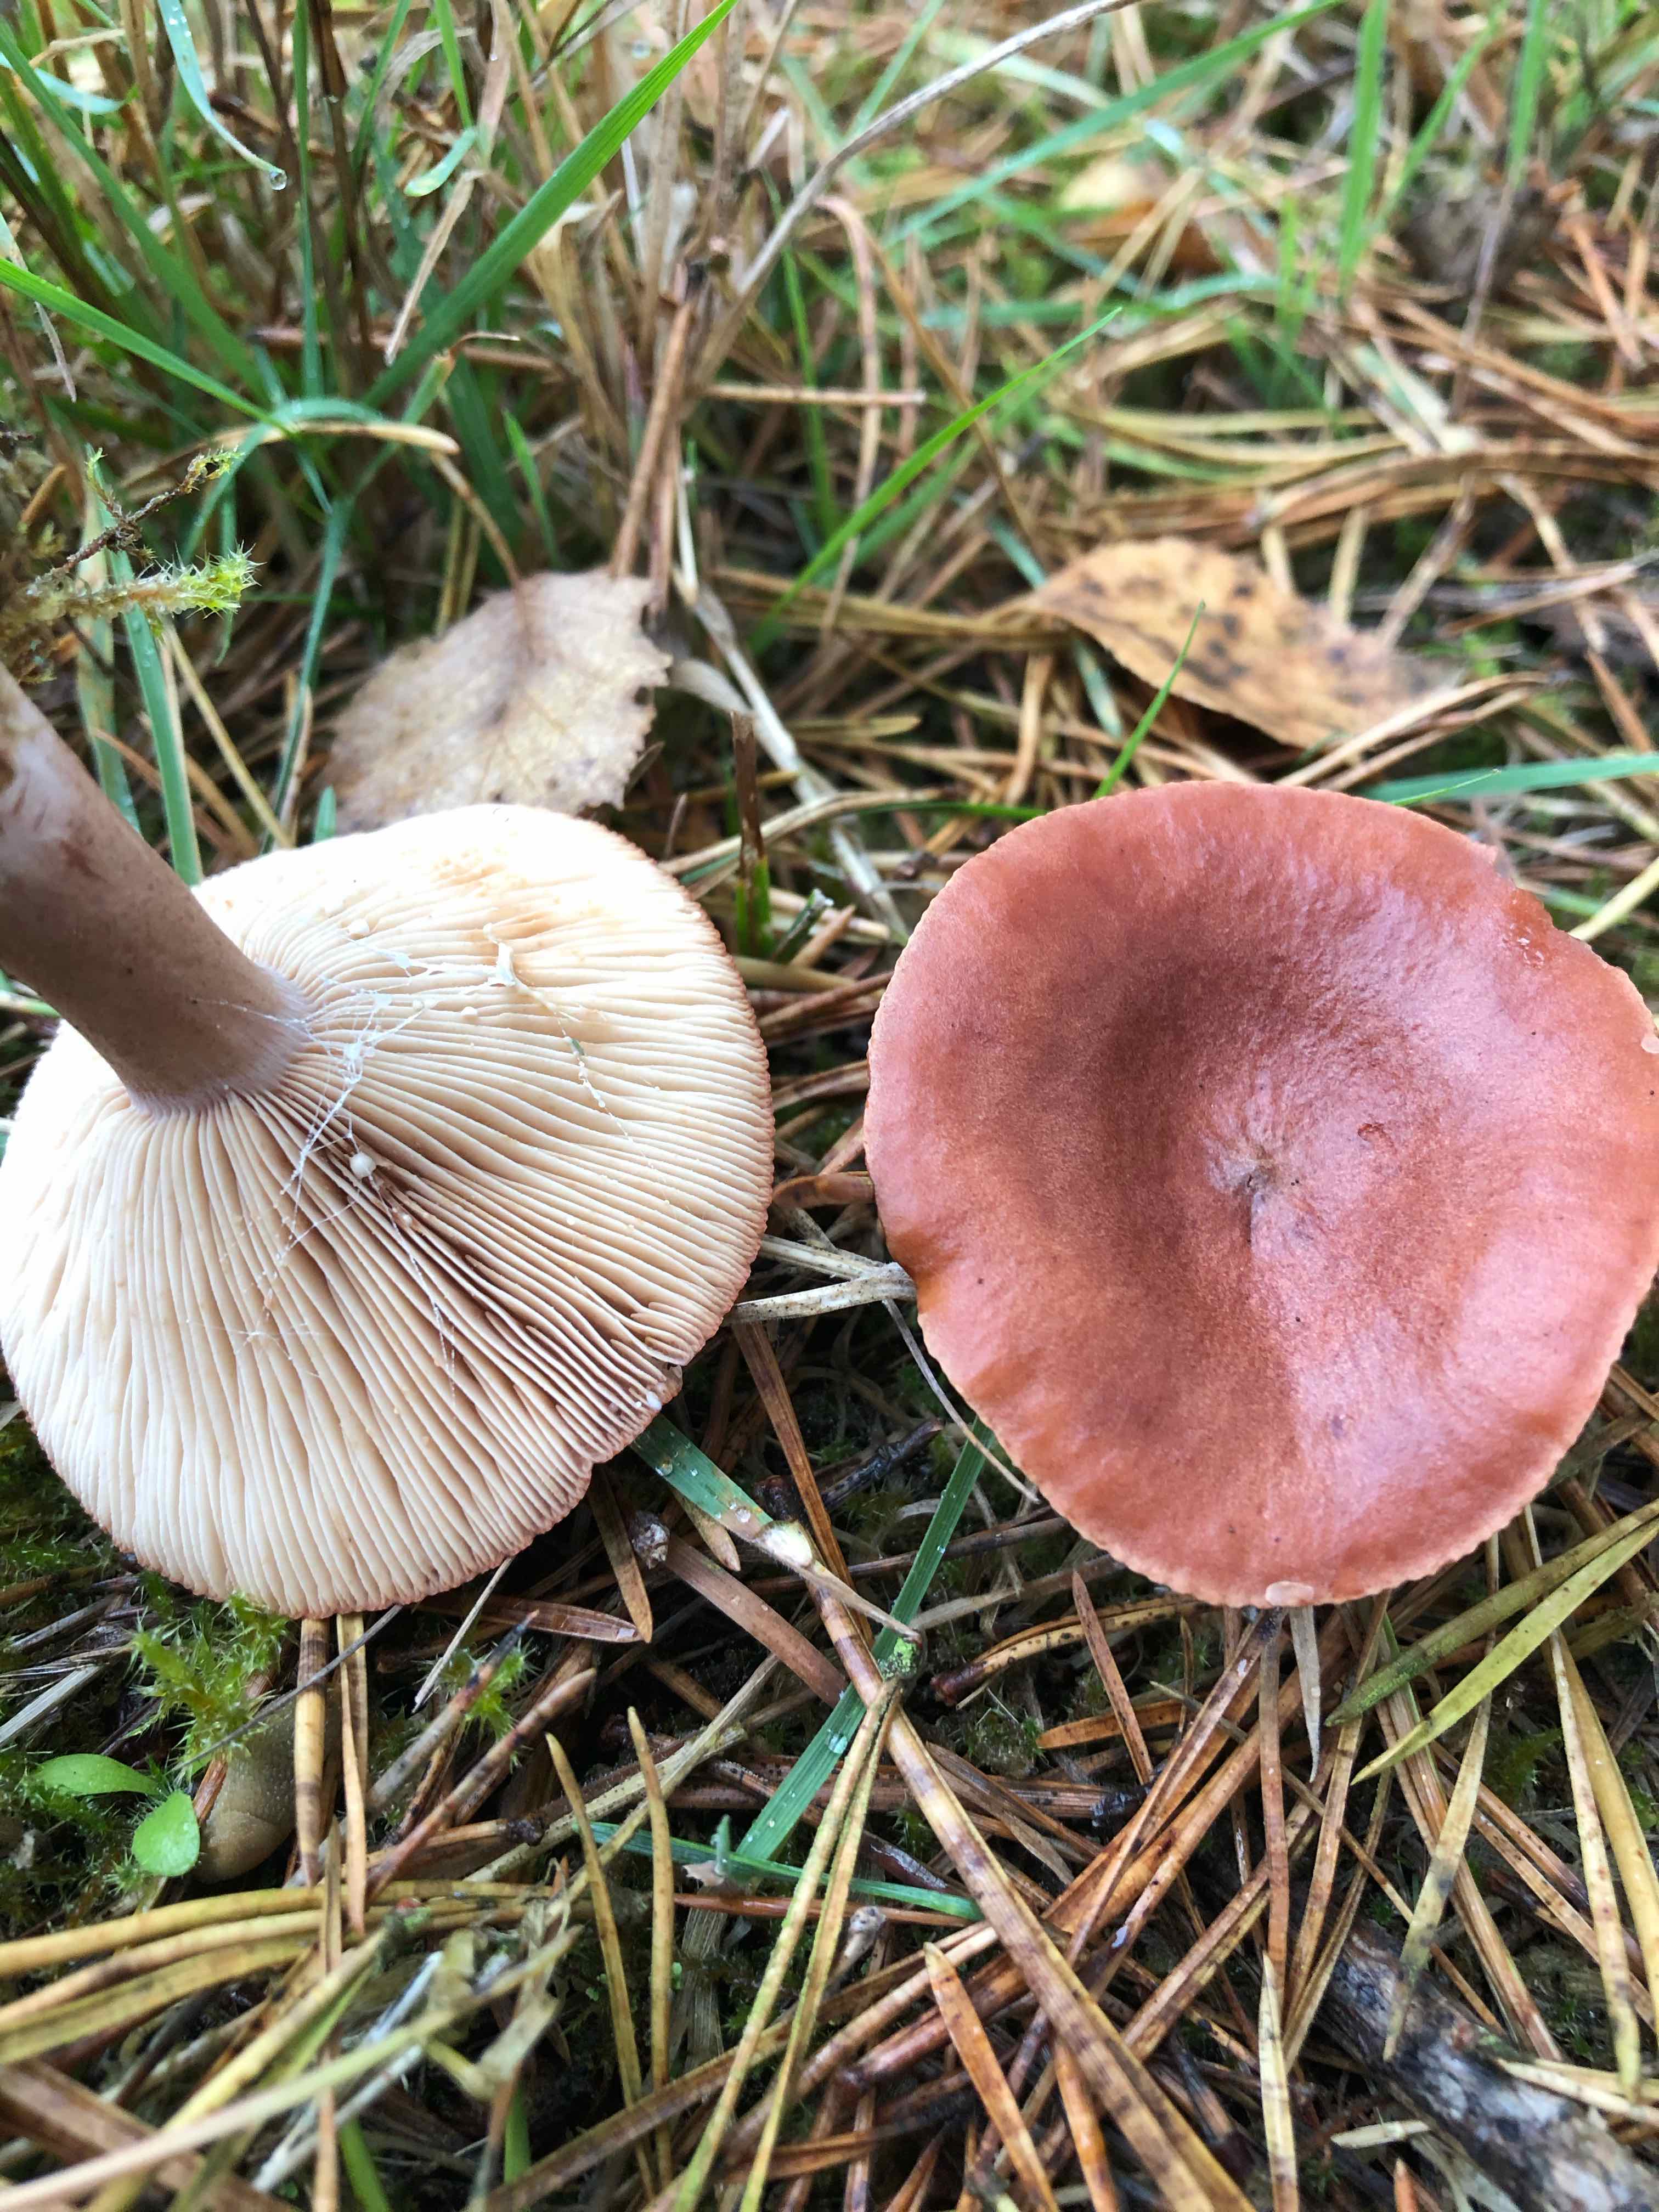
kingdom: Fungi
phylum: Basidiomycota
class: Agaricomycetes
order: Russulales
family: Russulaceae
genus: Lactarius
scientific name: Lactarius rufus
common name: rødbrun mælkehat
